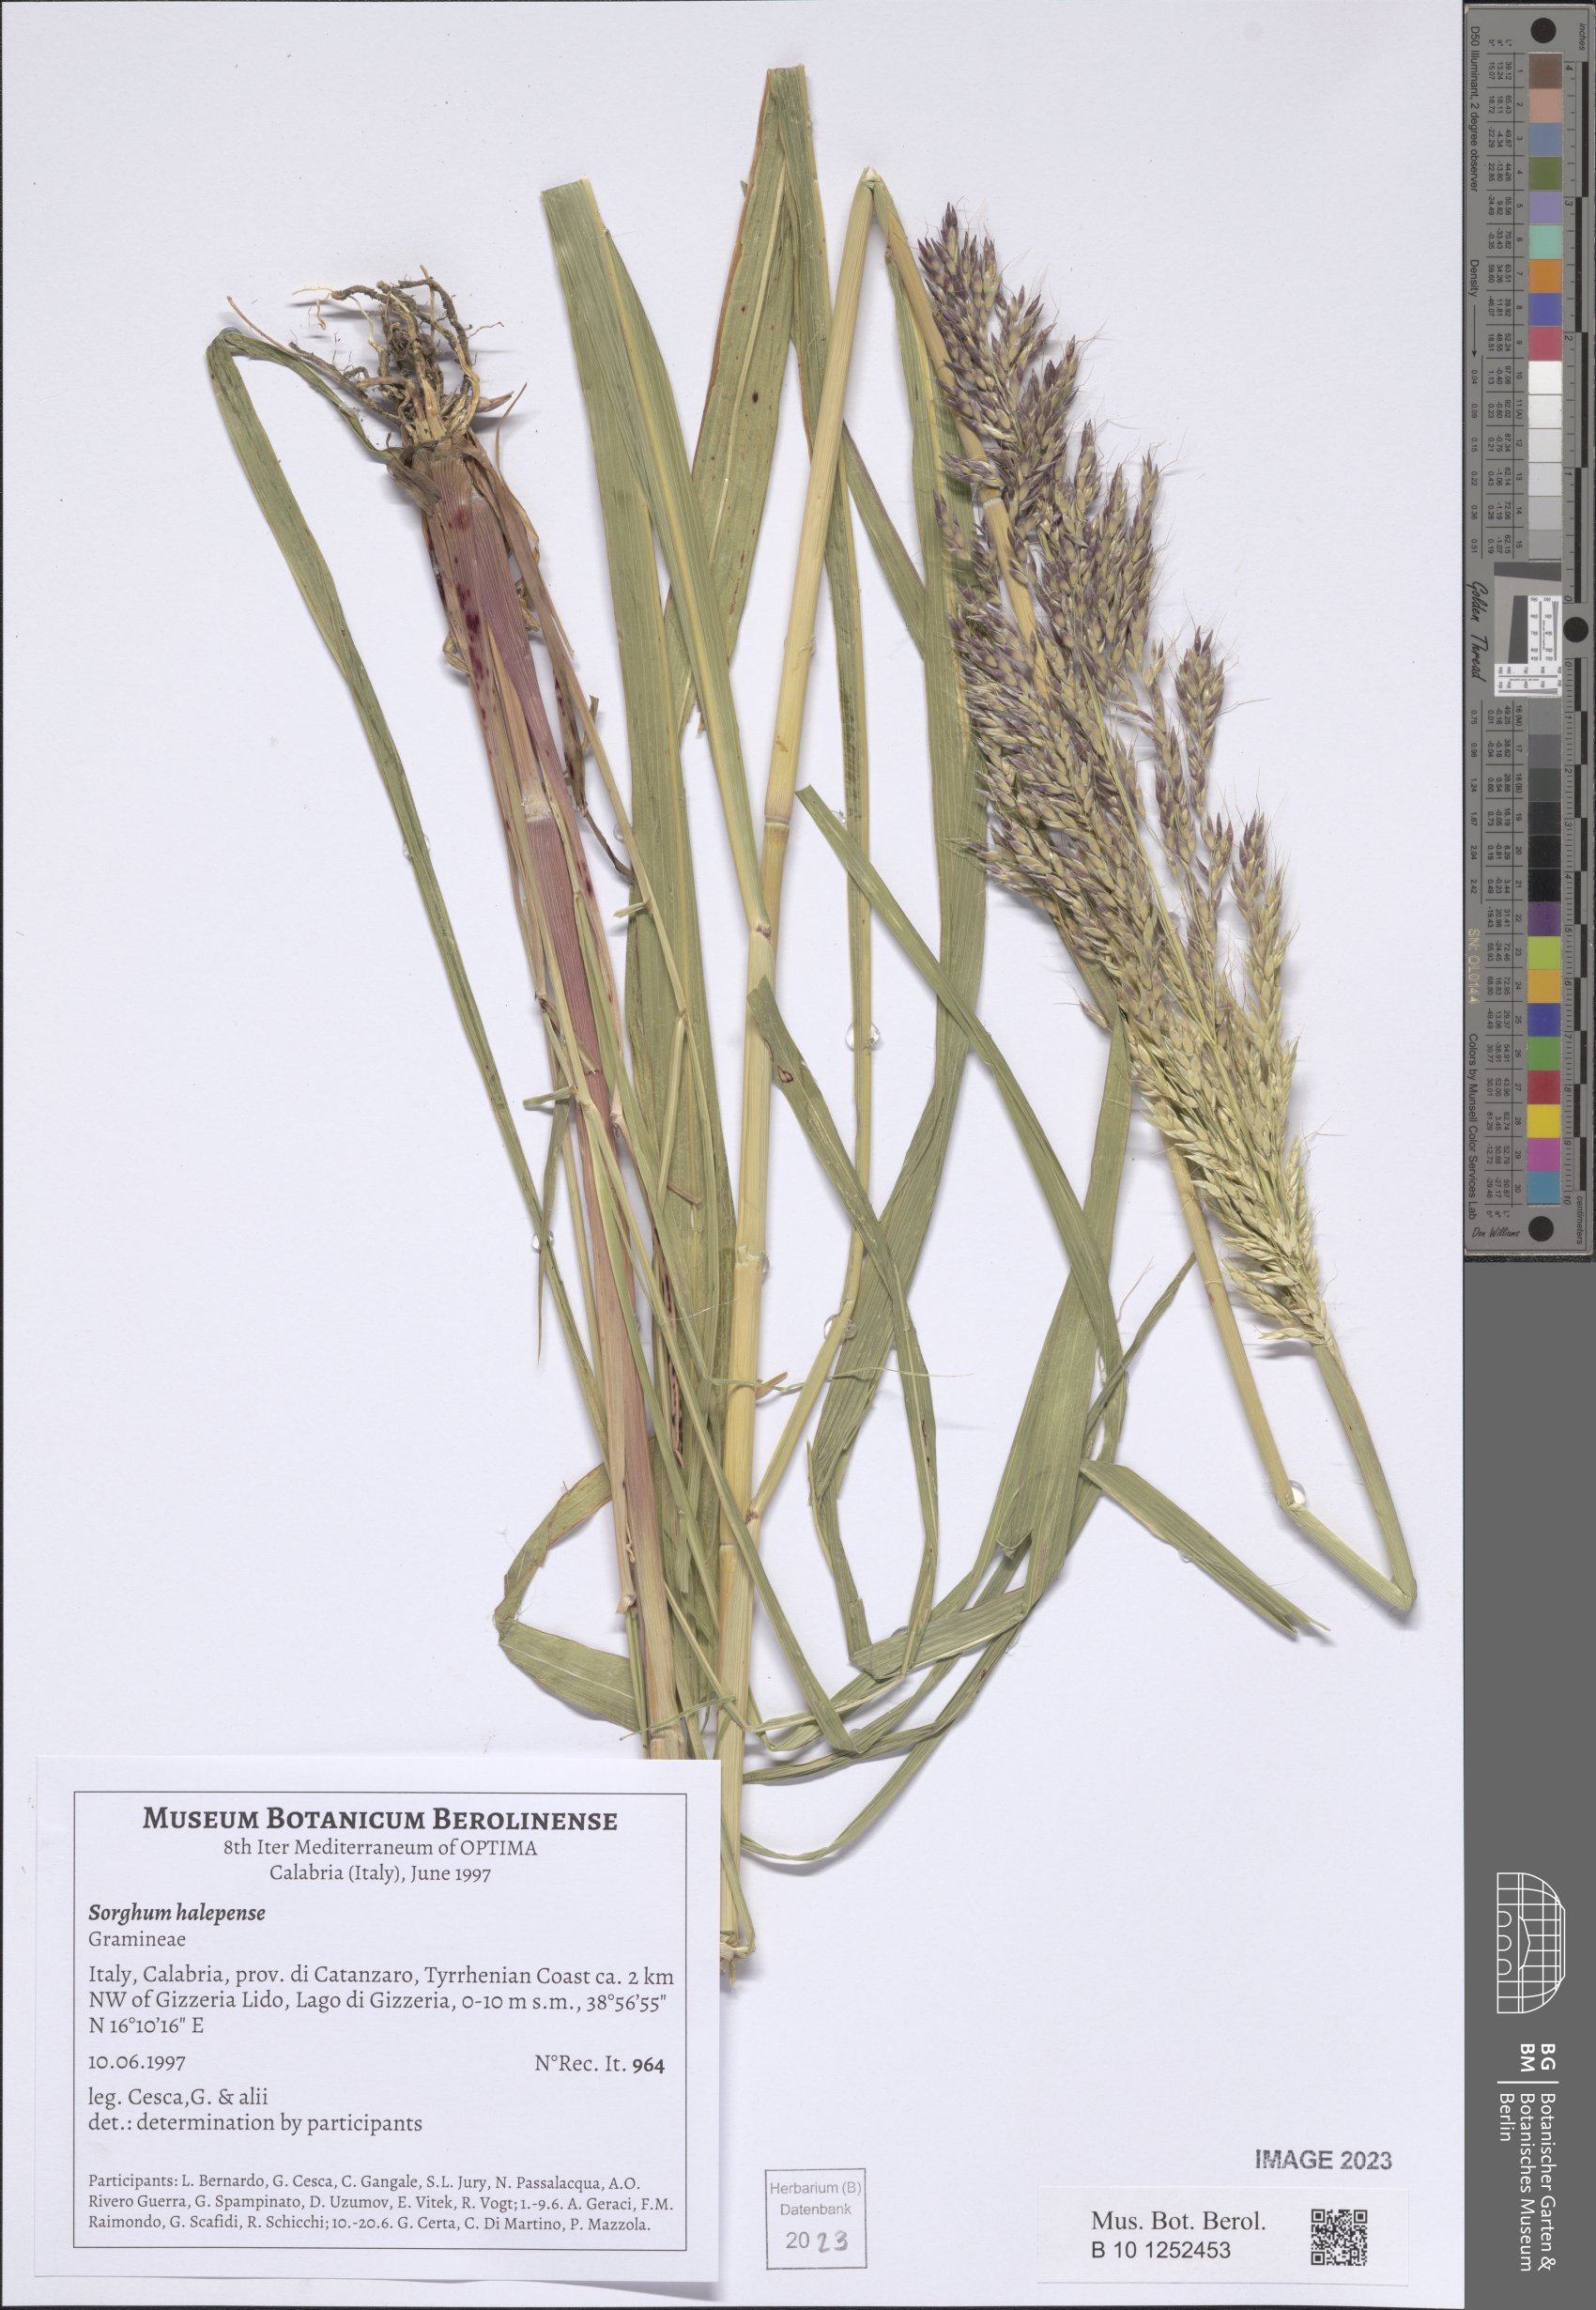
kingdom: Plantae
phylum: Tracheophyta
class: Liliopsida
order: Poales
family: Poaceae
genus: Sorghum
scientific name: Sorghum halepense
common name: Johnson-grass
